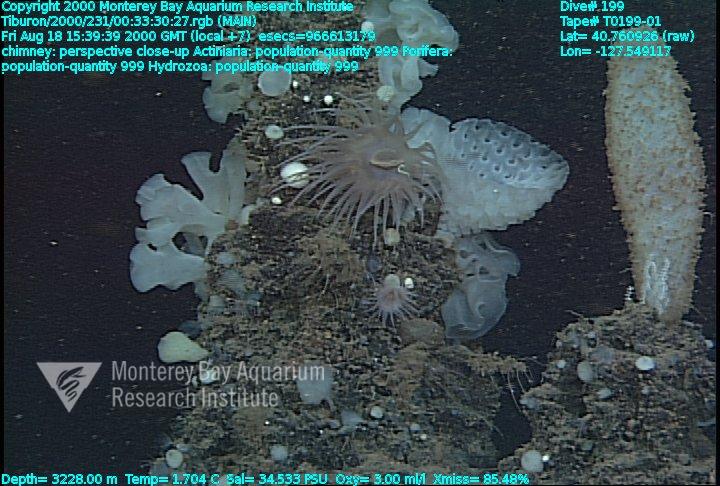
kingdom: Animalia
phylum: Porifera
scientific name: Porifera
